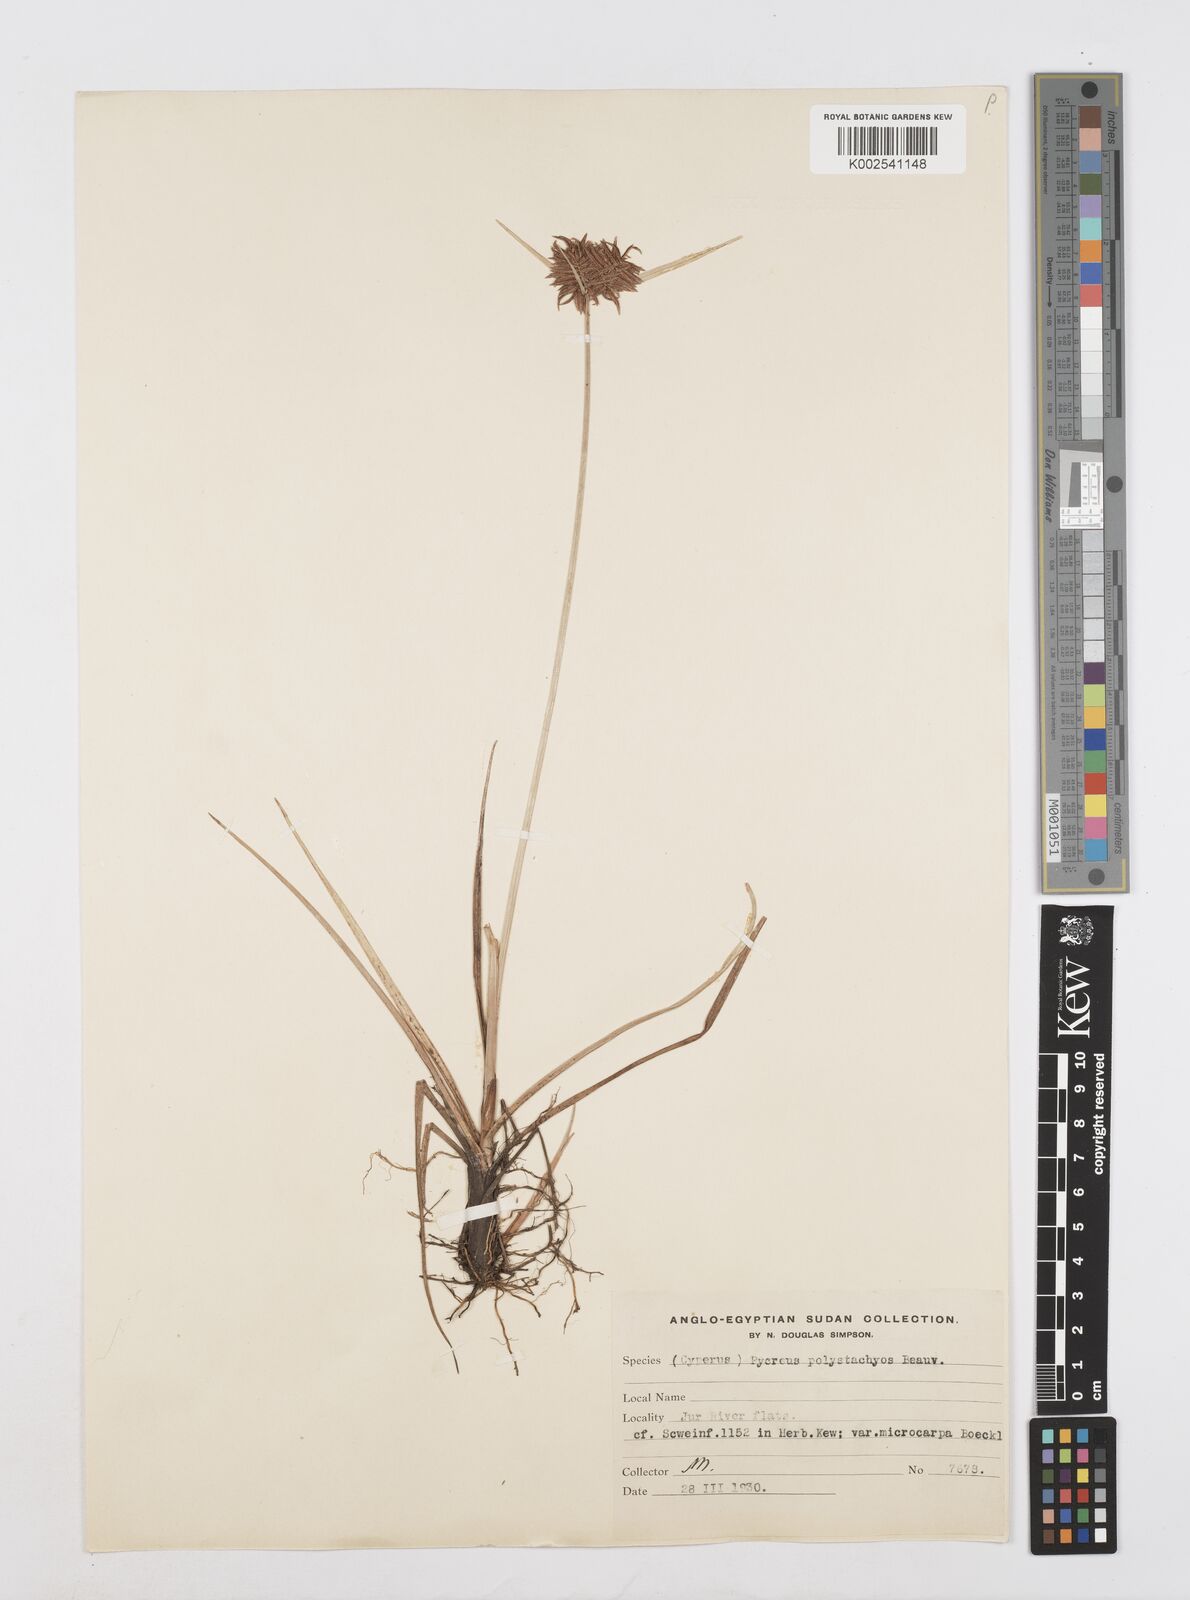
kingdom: Plantae
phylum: Tracheophyta
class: Liliopsida
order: Poales
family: Cyperaceae
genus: Cyperus
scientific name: Cyperus polystachyos
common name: Bunchy flat sedge
